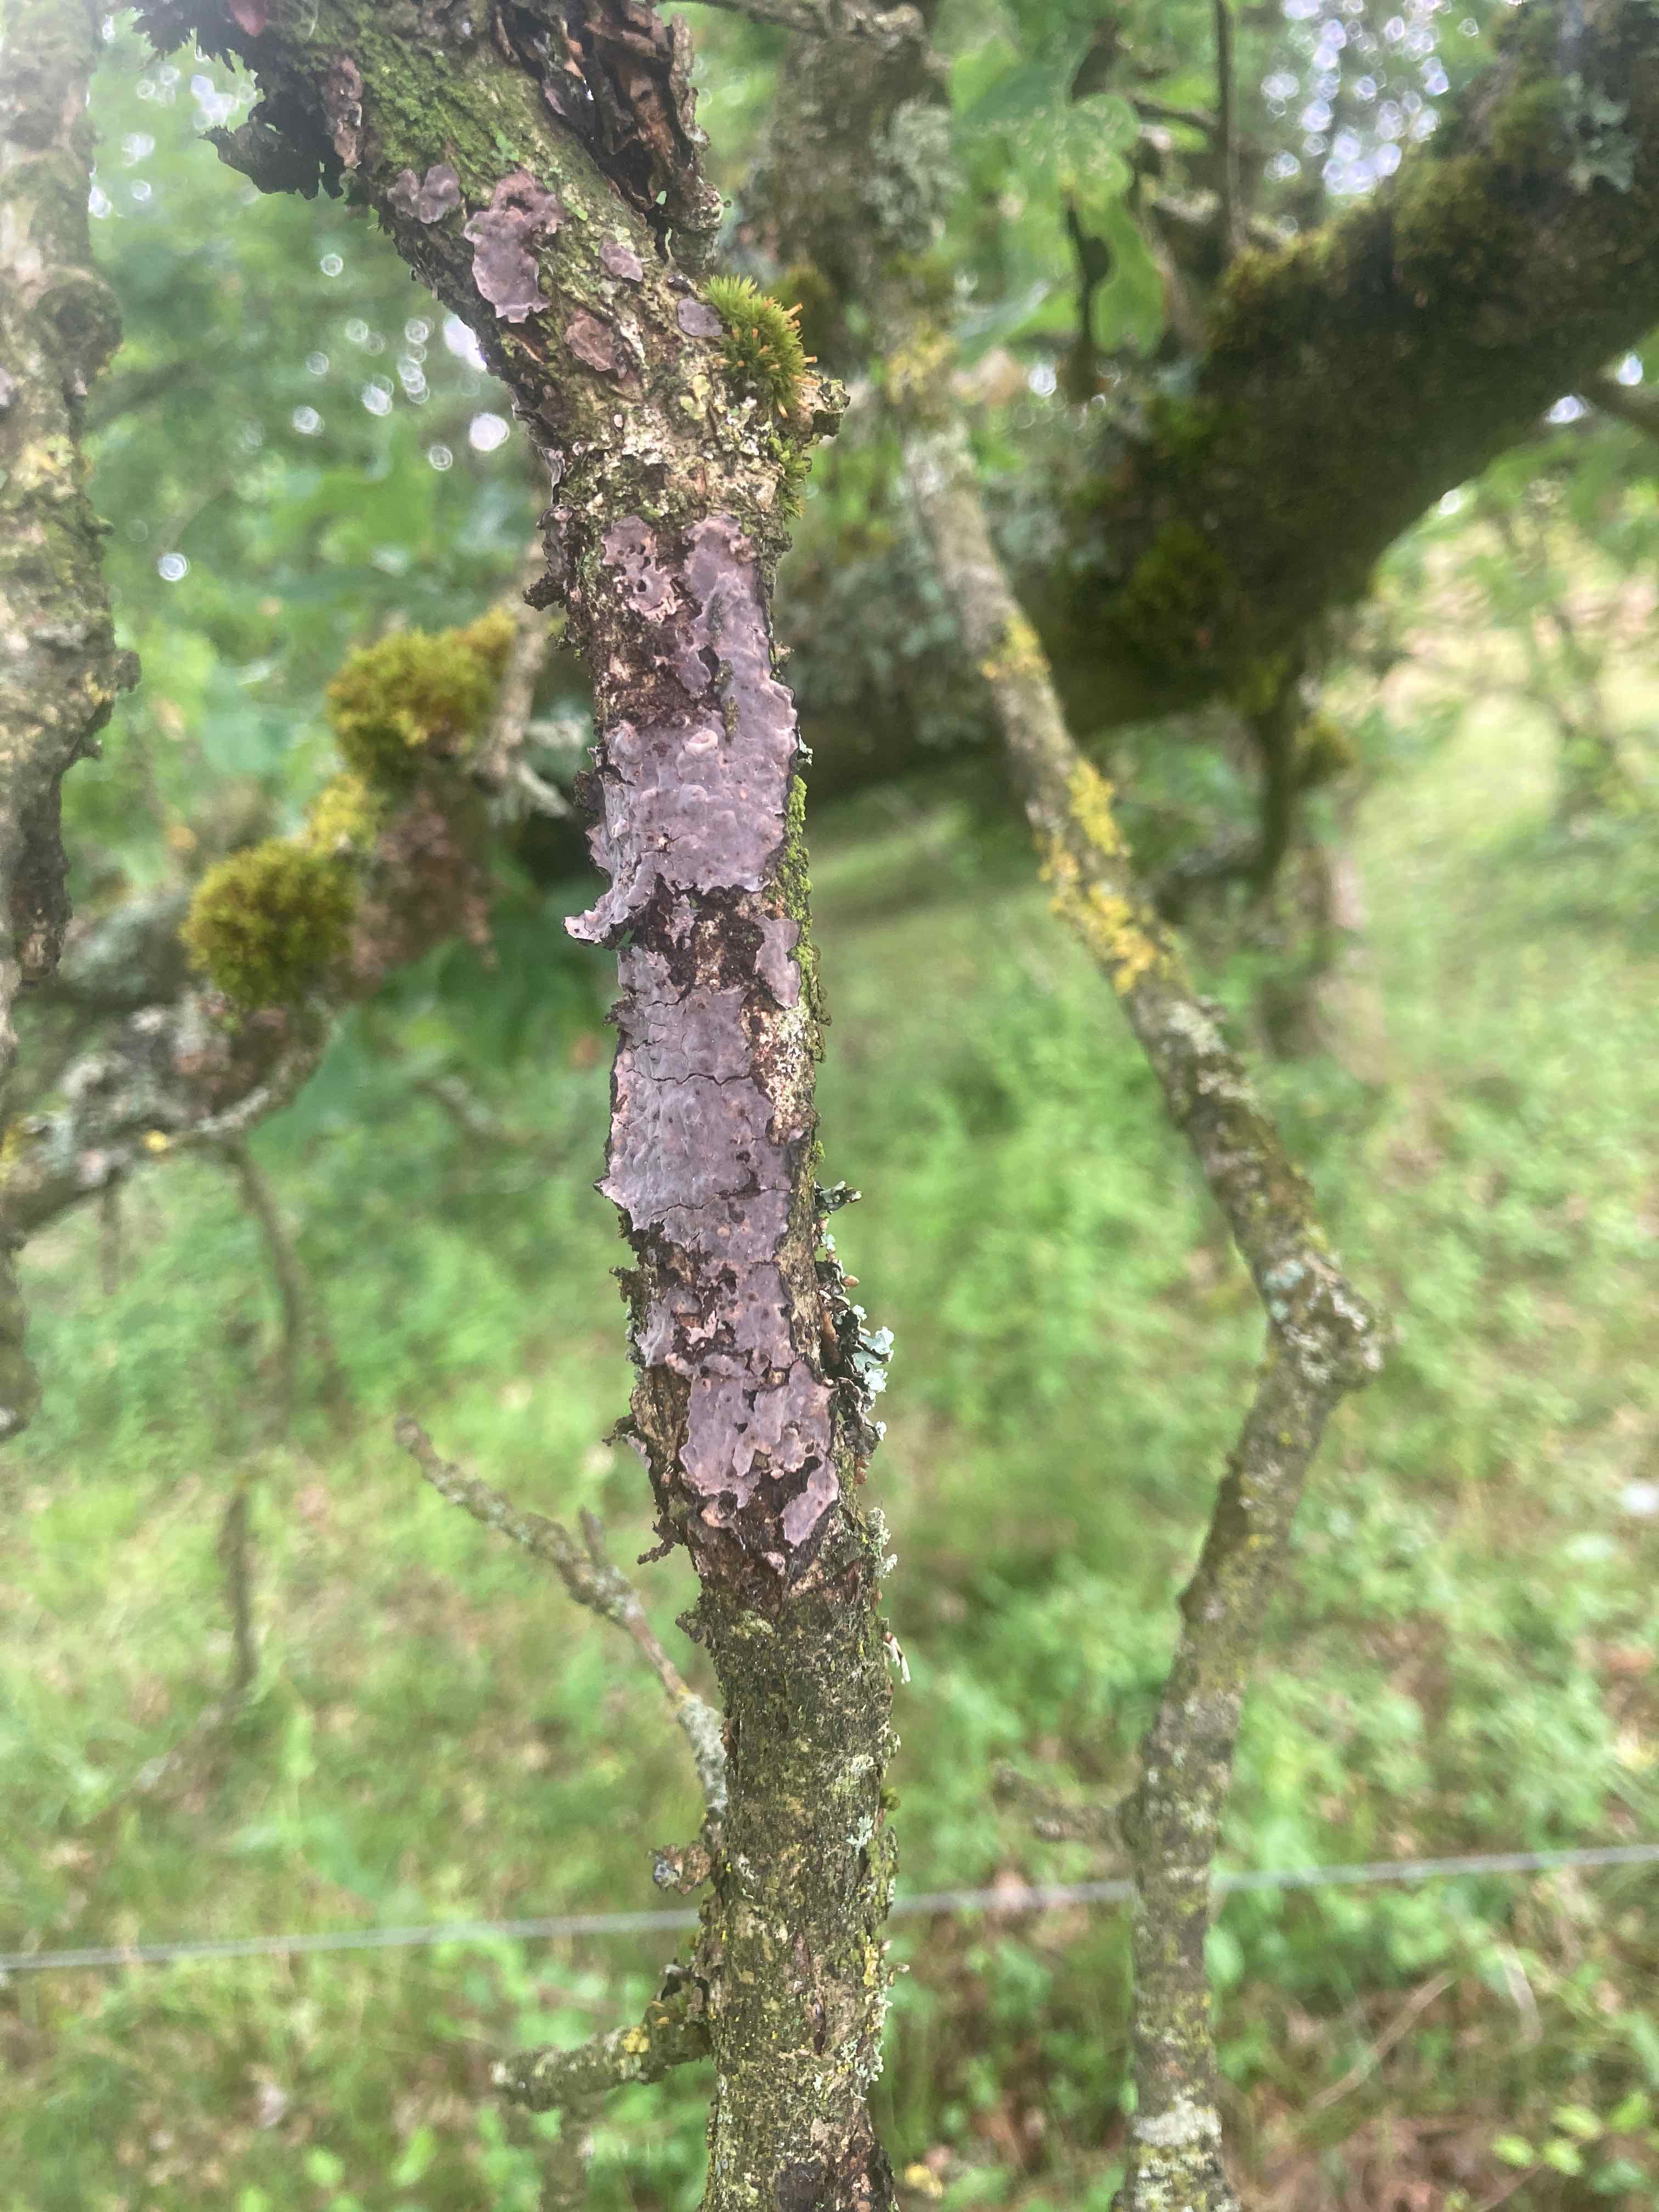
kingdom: Fungi
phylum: Basidiomycota
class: Agaricomycetes
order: Russulales
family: Peniophoraceae
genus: Peniophora
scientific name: Peniophora quercina
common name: ege-voksskind
